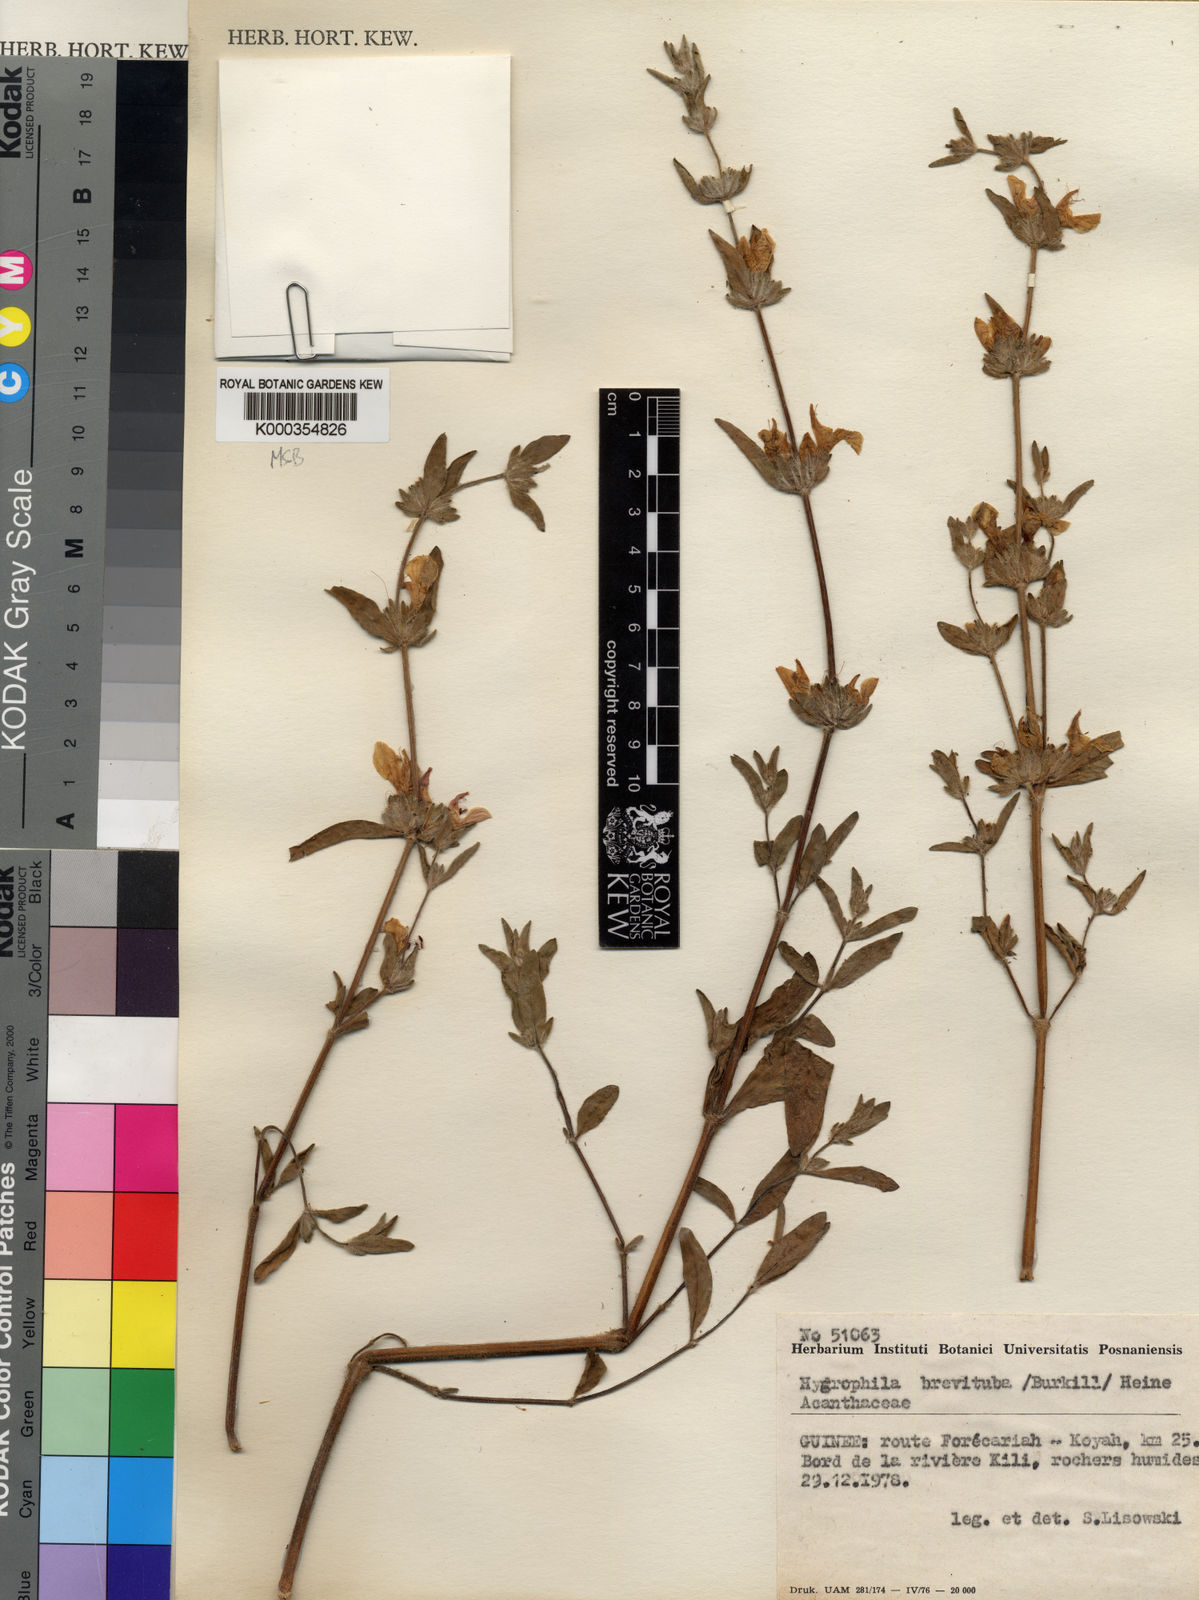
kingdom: Plantae
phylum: Tracheophyta
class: Magnoliopsida
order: Lamiales
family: Acanthaceae
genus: Hygrophila
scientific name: Hygrophila brevituba
